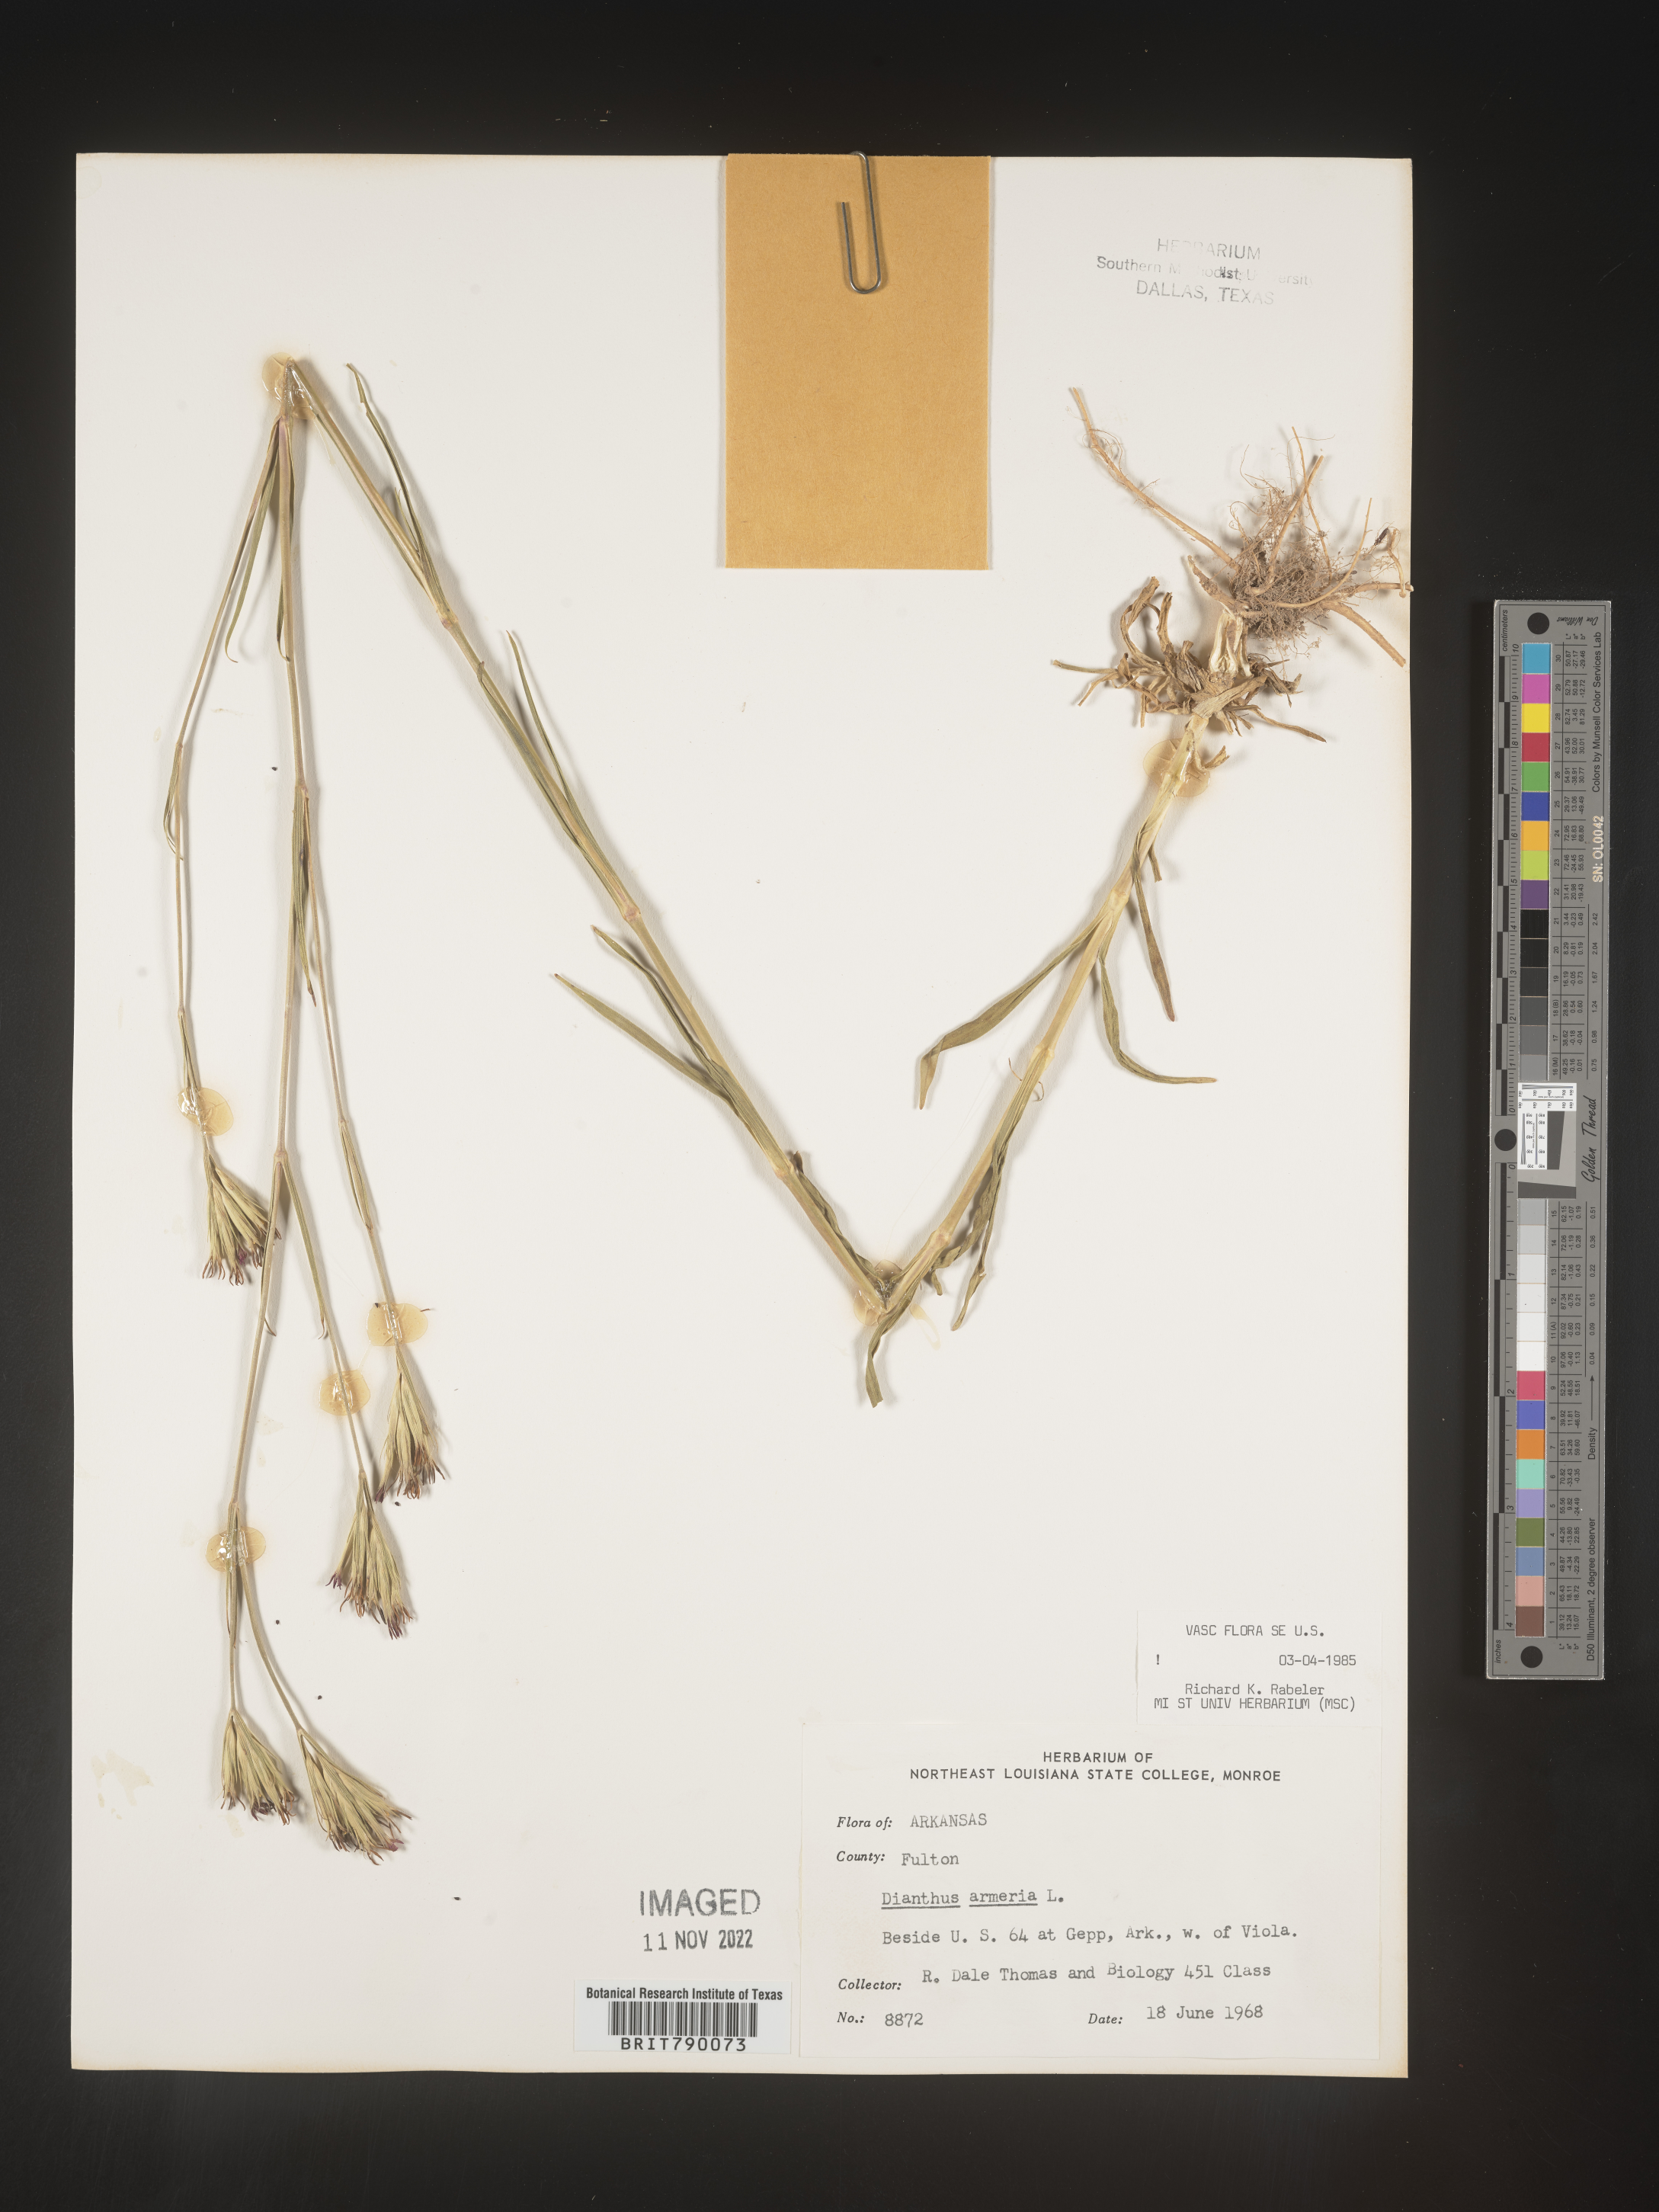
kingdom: Plantae
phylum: Tracheophyta
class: Magnoliopsida
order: Caryophyllales
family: Caryophyllaceae
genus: Dianthus
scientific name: Dianthus armeria
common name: Deptford pink
